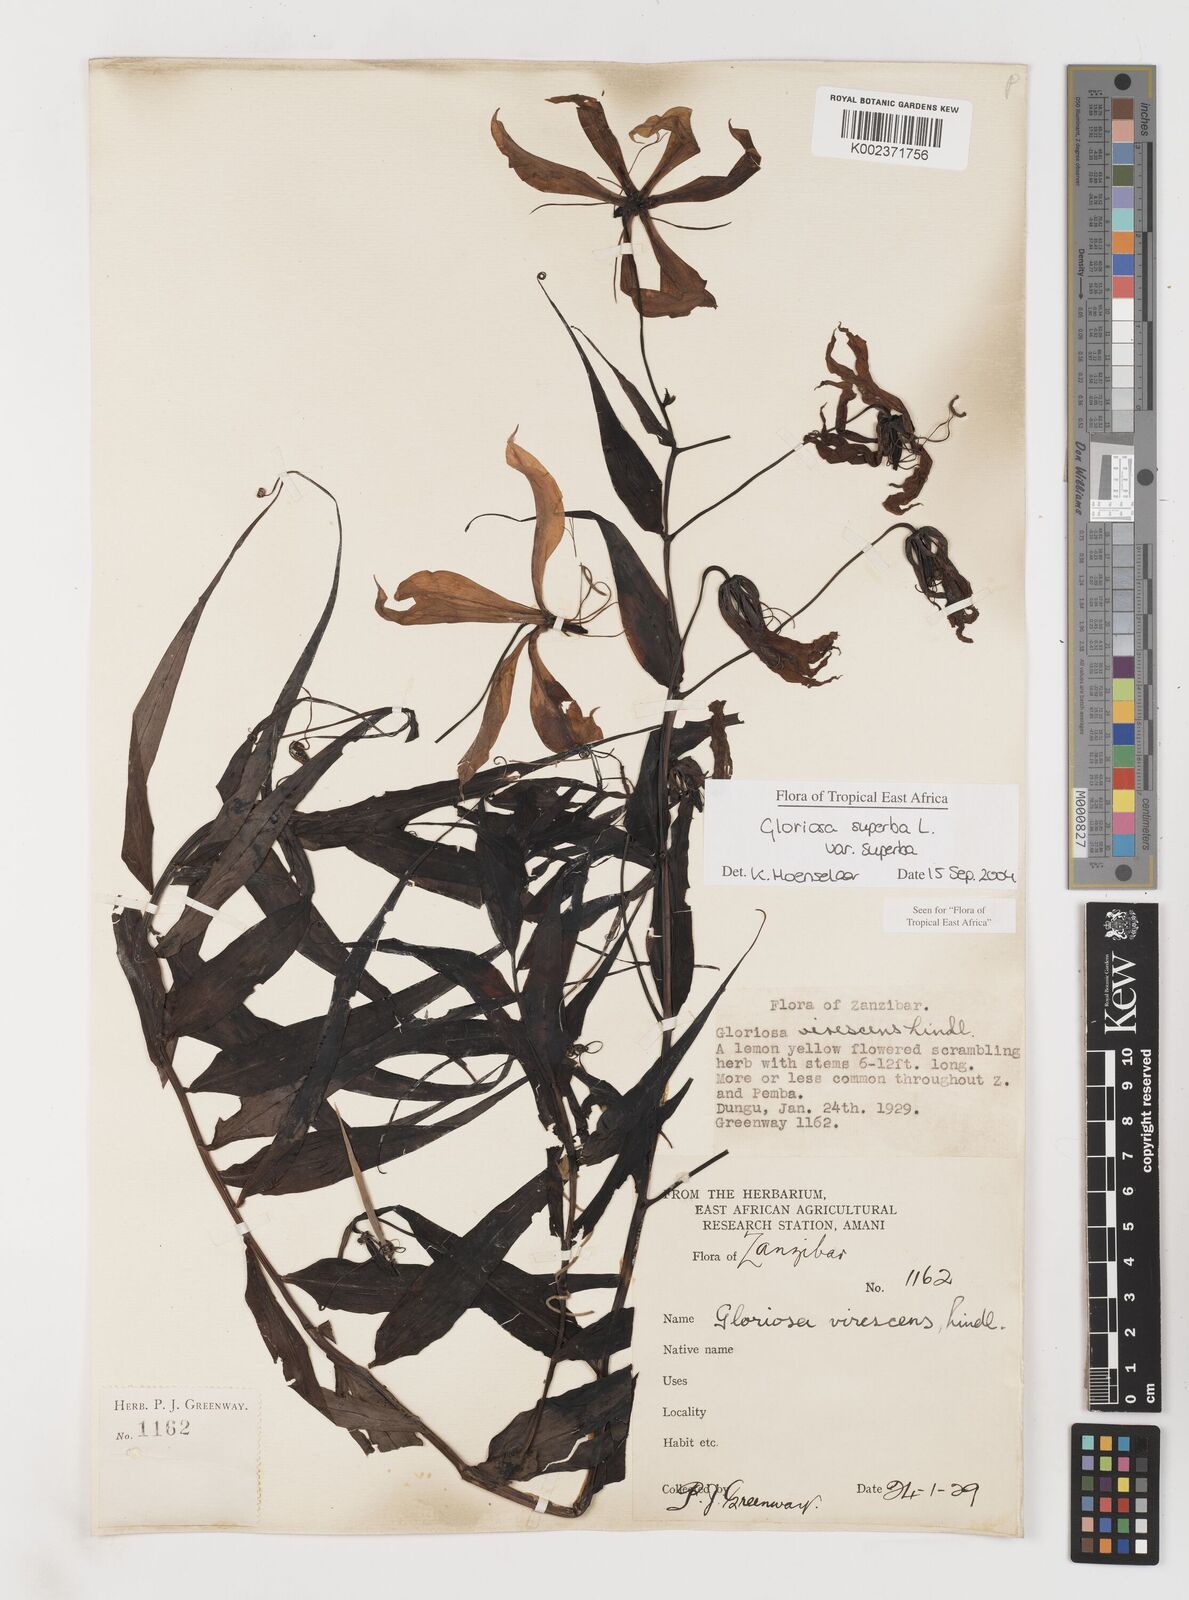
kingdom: Plantae
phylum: Tracheophyta
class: Liliopsida
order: Liliales
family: Colchicaceae
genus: Gloriosa
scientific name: Gloriosa simplex
